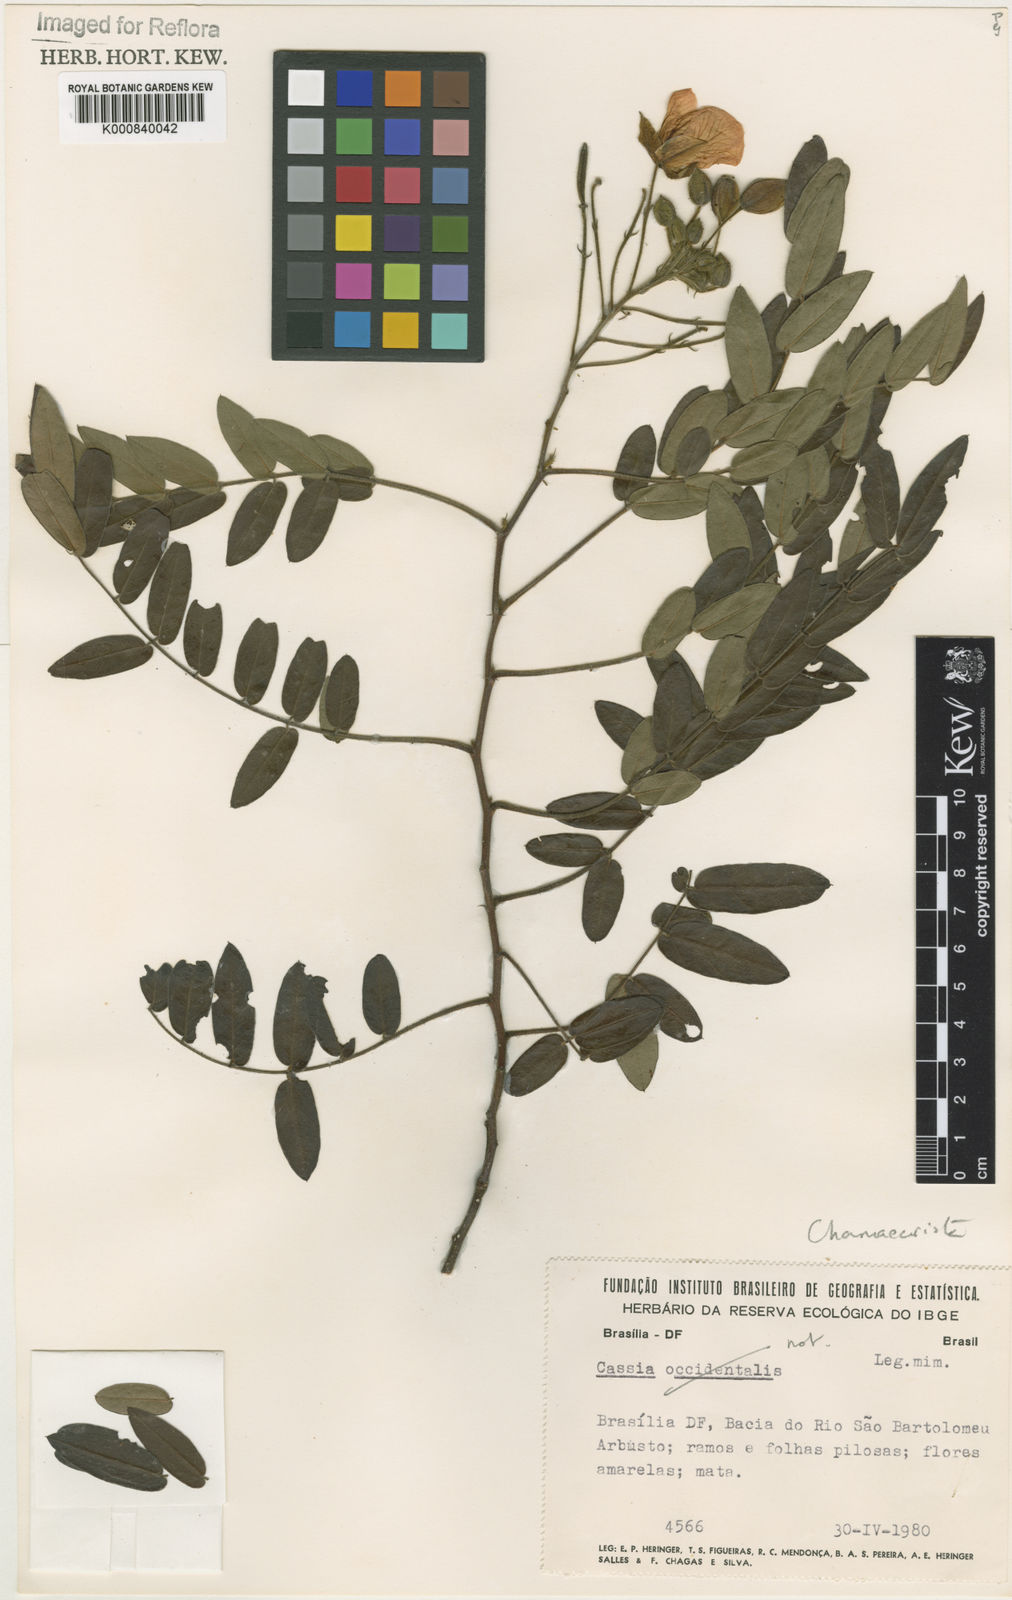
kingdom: Plantae
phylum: Tracheophyta
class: Magnoliopsida
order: Fabales
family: Fabaceae
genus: Chamaecrista
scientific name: Chamaecrista machaeriifolia
